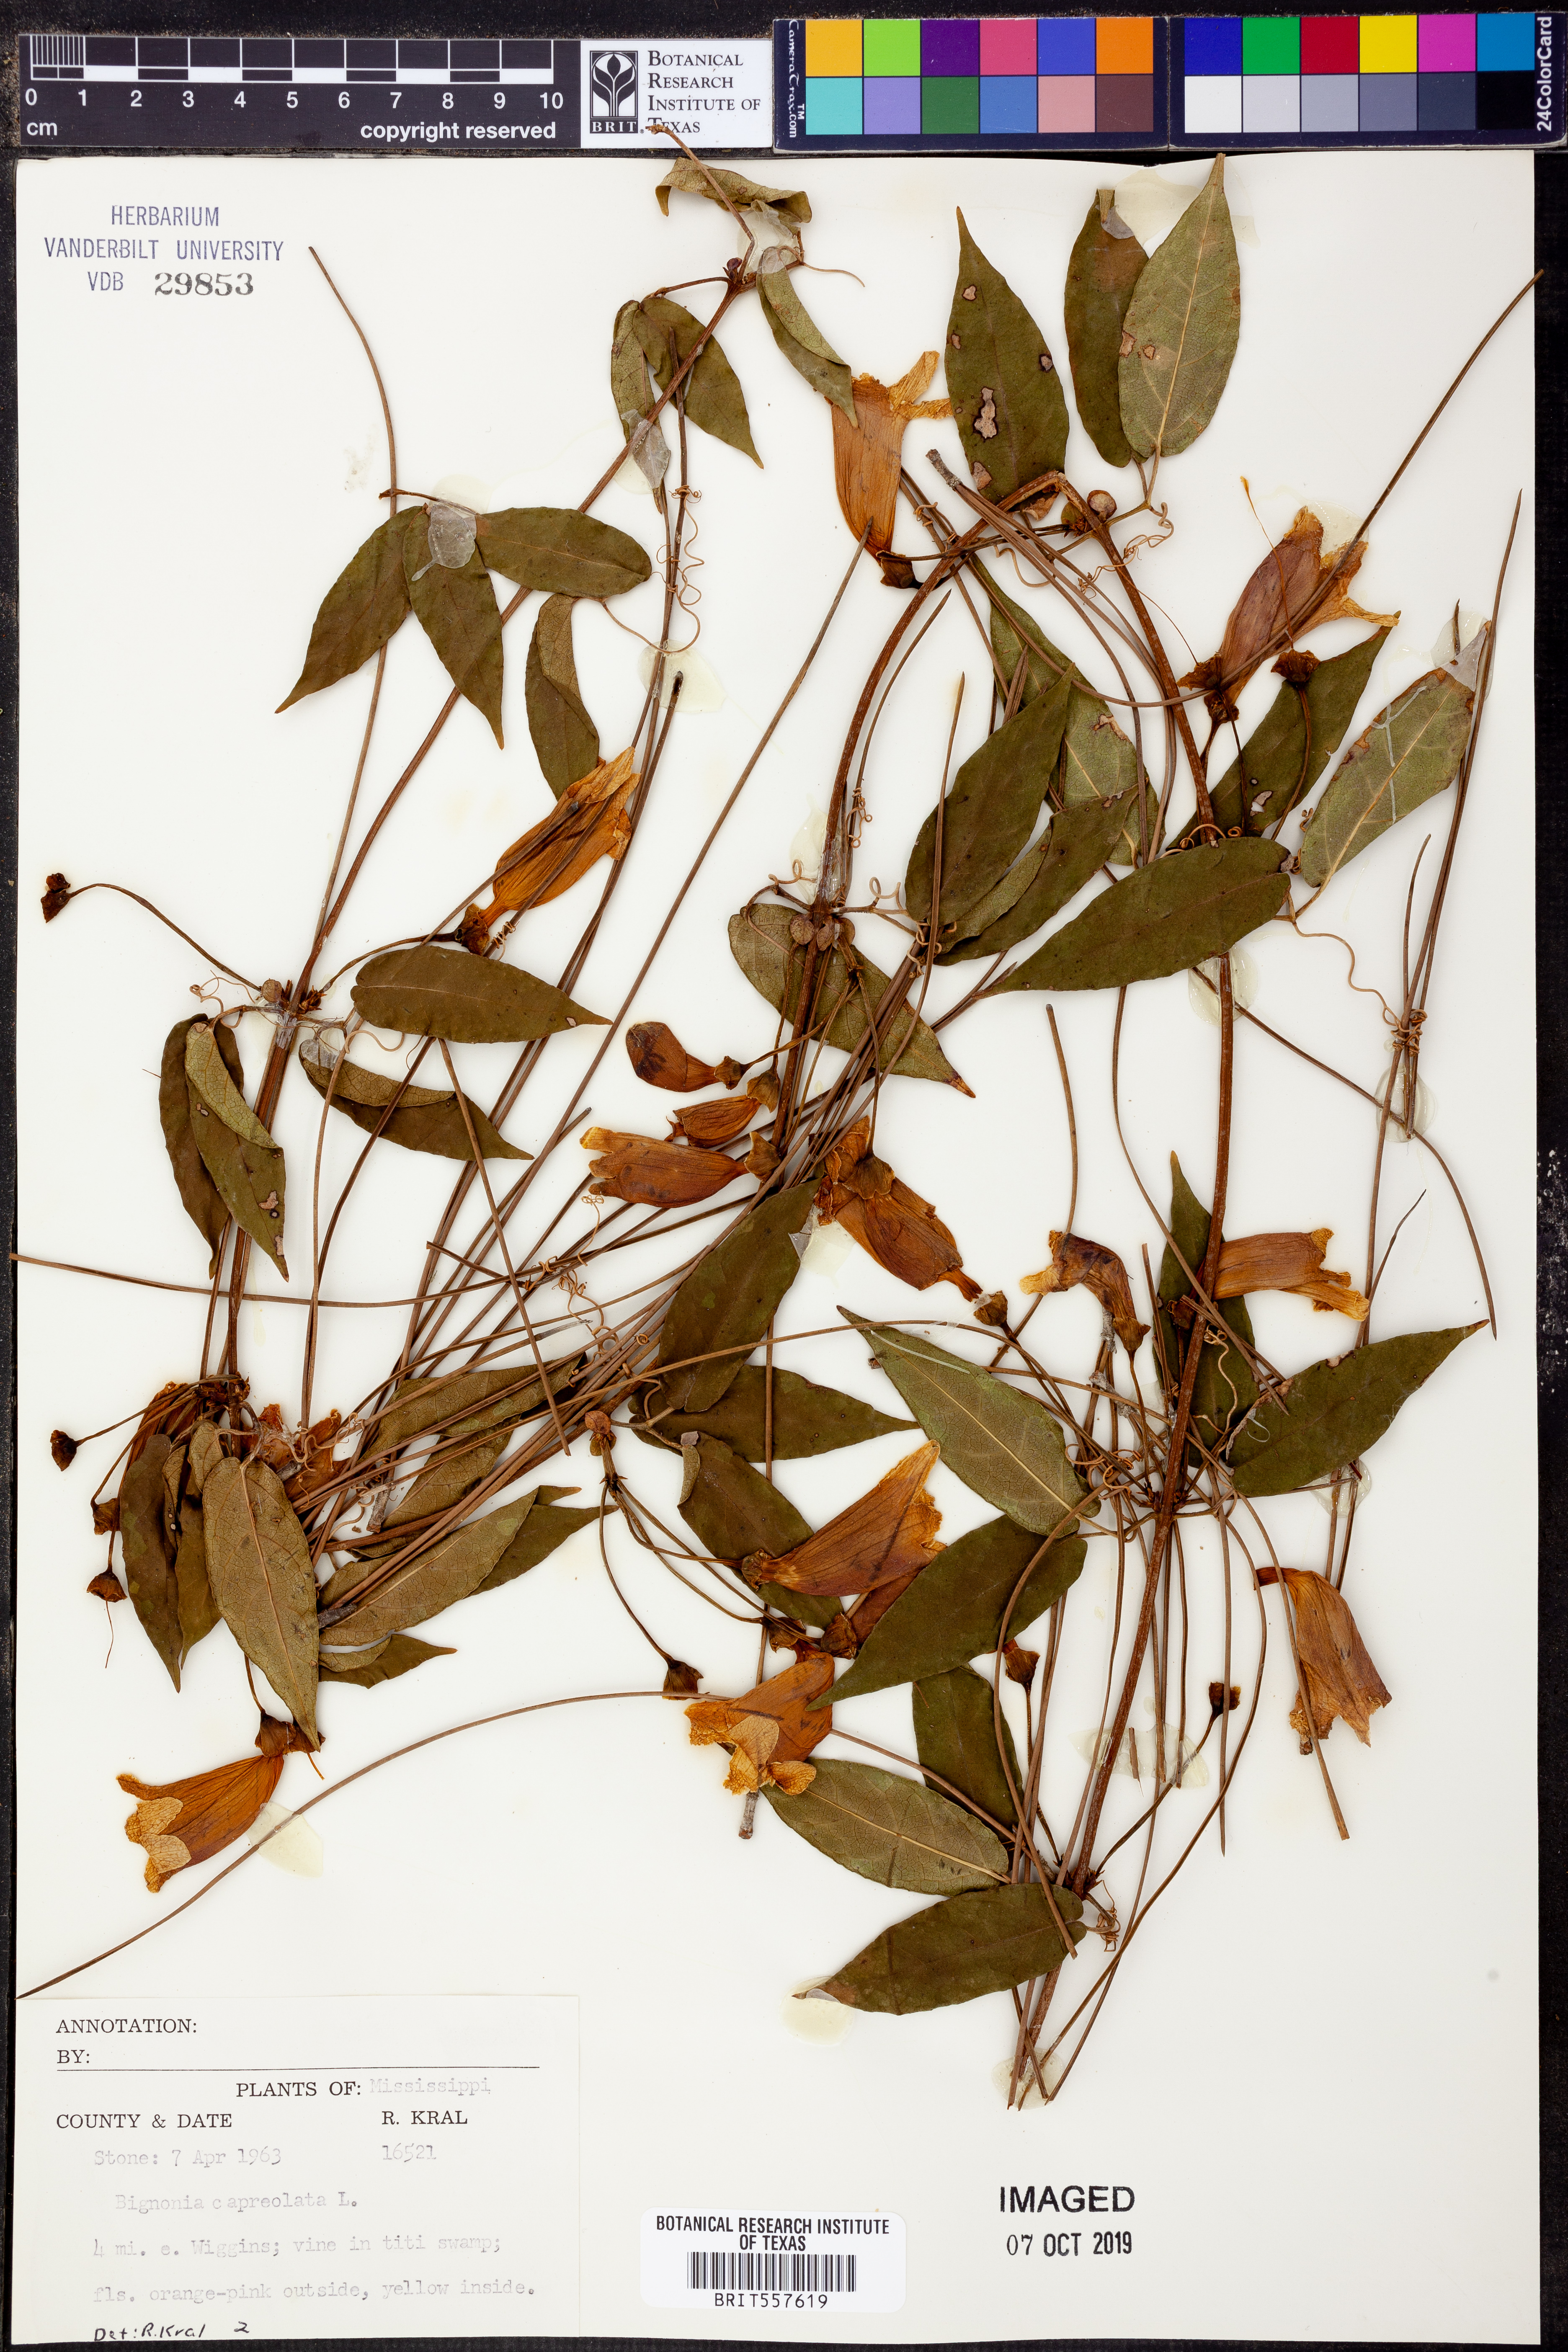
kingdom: Plantae
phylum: Tracheophyta
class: Magnoliopsida
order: Lamiales
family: Bignoniaceae
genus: Bignonia
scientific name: Bignonia capreolata
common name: Crossvine
